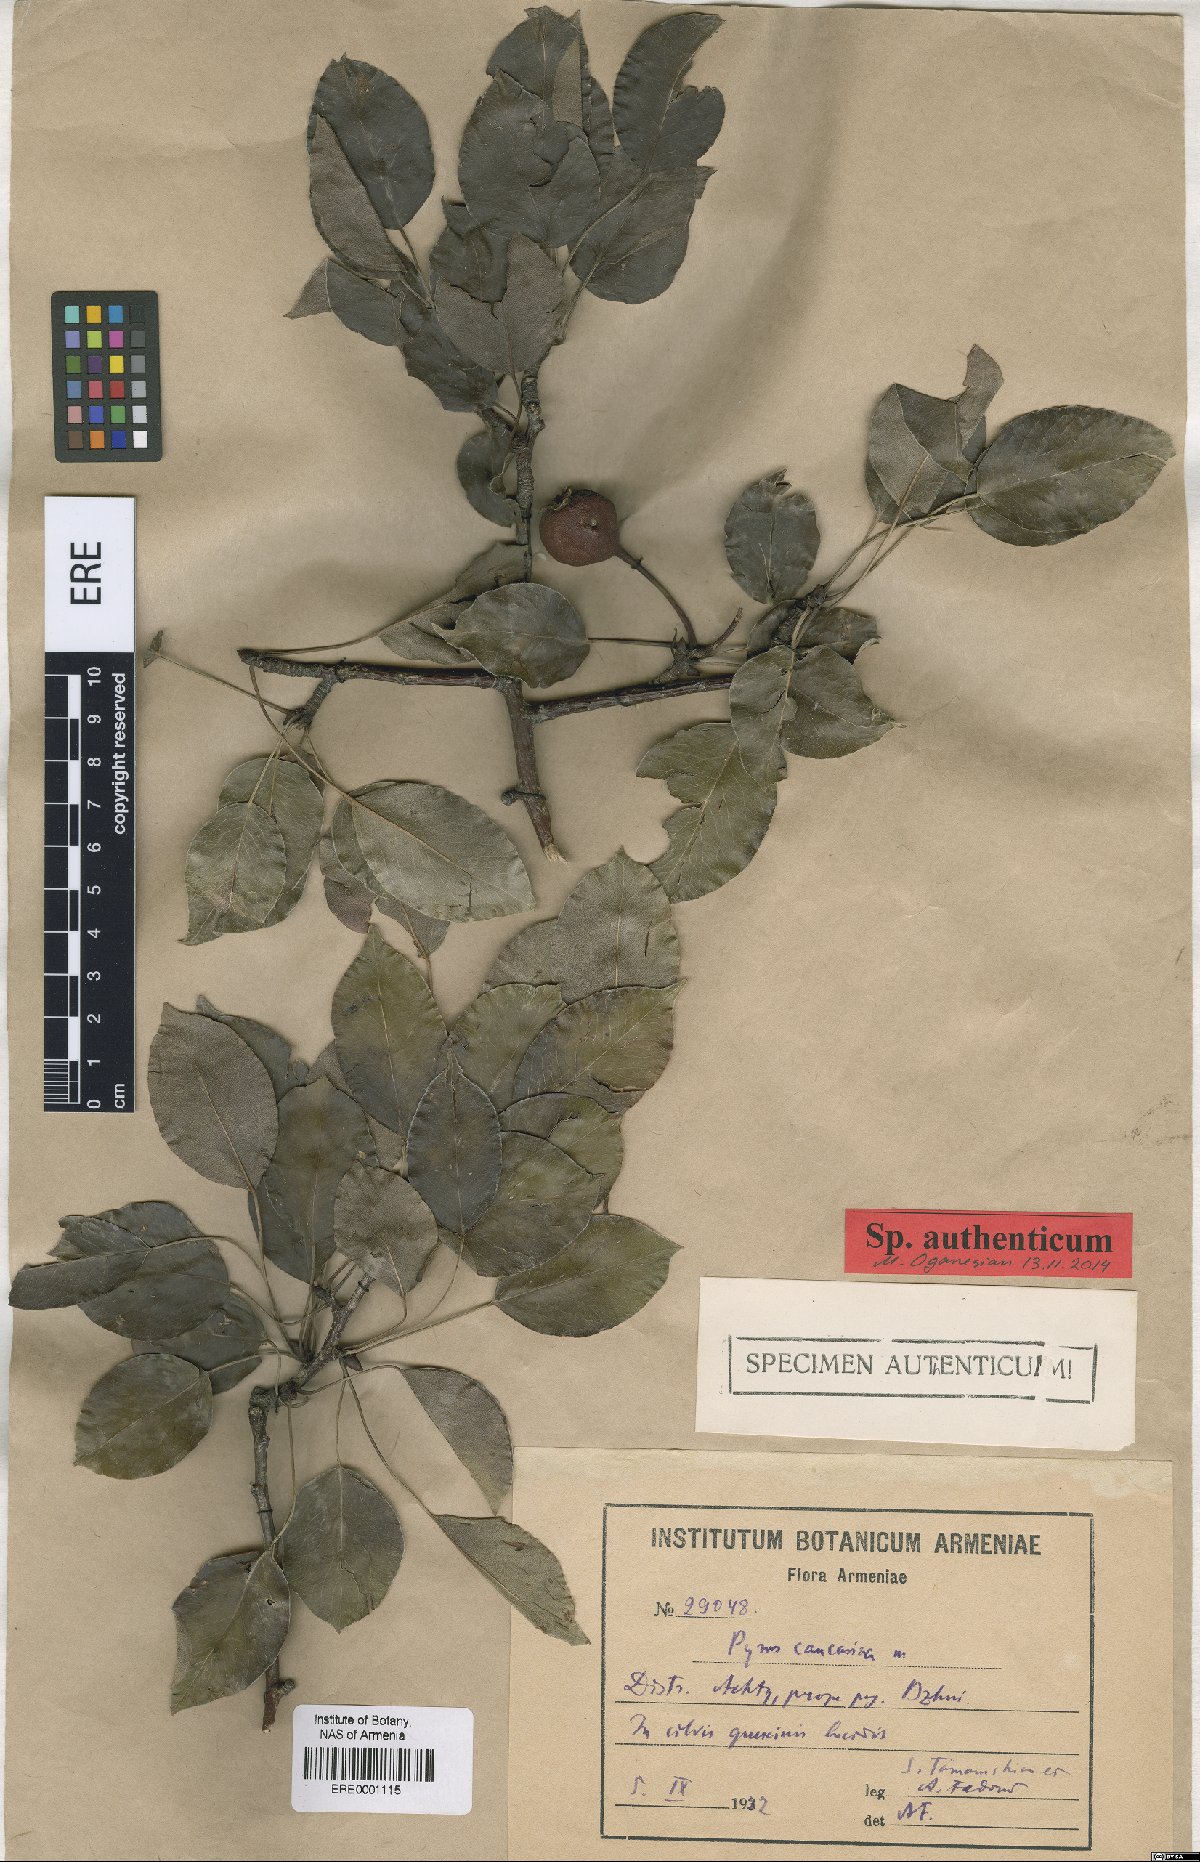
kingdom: Plantae
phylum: Tracheophyta
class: Magnoliopsida
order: Rosales
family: Rosaceae
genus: Pyrus
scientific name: Pyrus communis
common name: Pear
